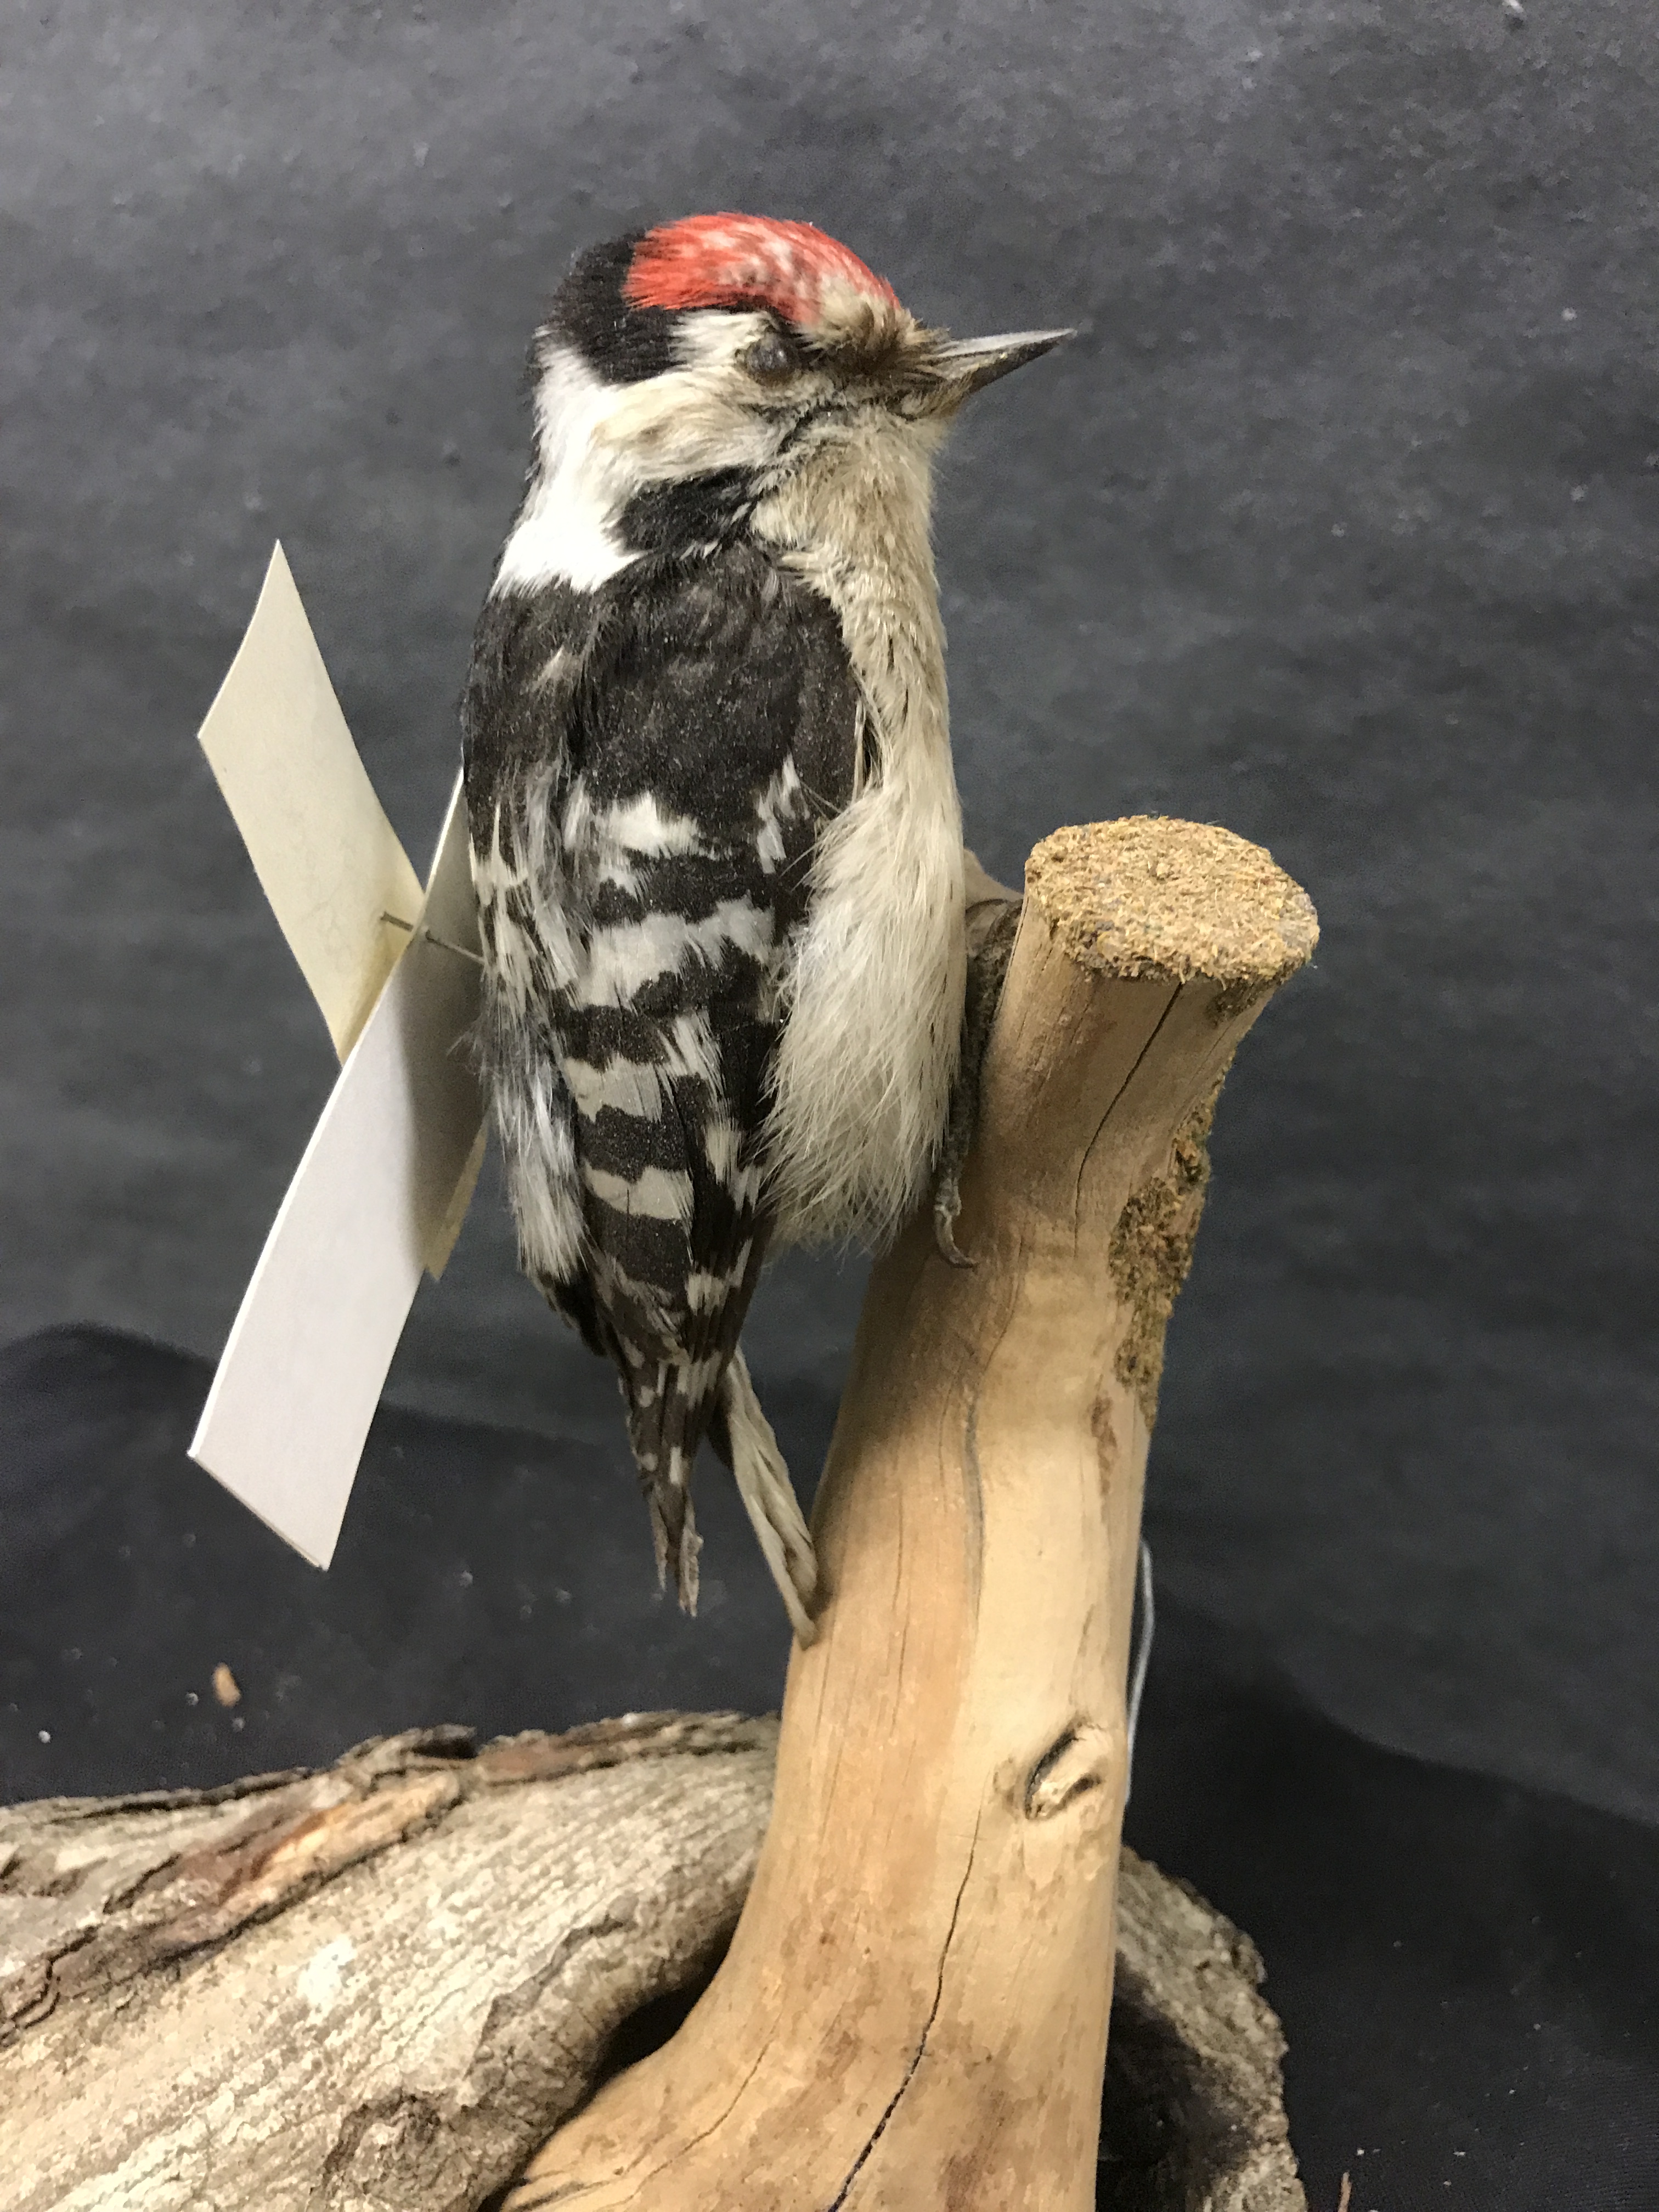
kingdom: Animalia
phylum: Chordata
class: Aves
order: Piciformes
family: Picidae
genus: Dryobates
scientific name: Dryobates minor
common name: Lesser spotted woodpecker
